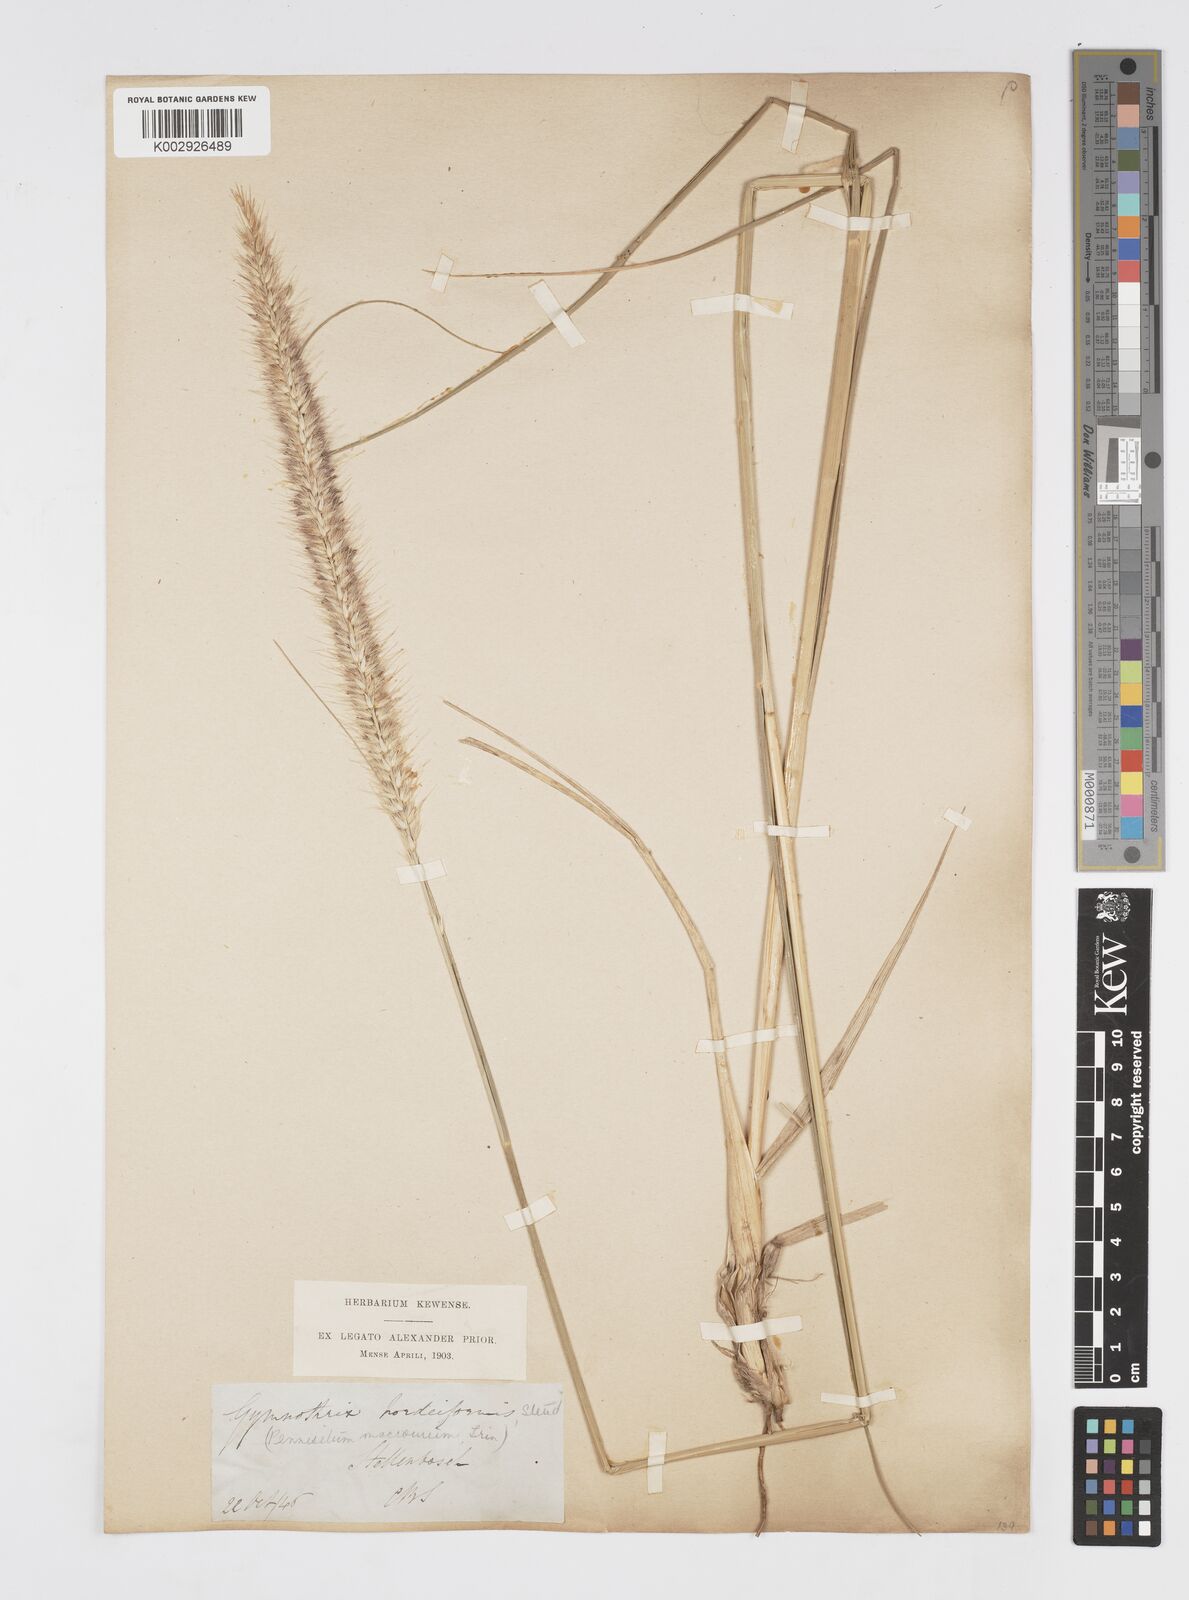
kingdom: Plantae
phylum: Tracheophyta
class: Liliopsida
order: Poales
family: Poaceae
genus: Cenchrus
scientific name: Cenchrus caudatus
